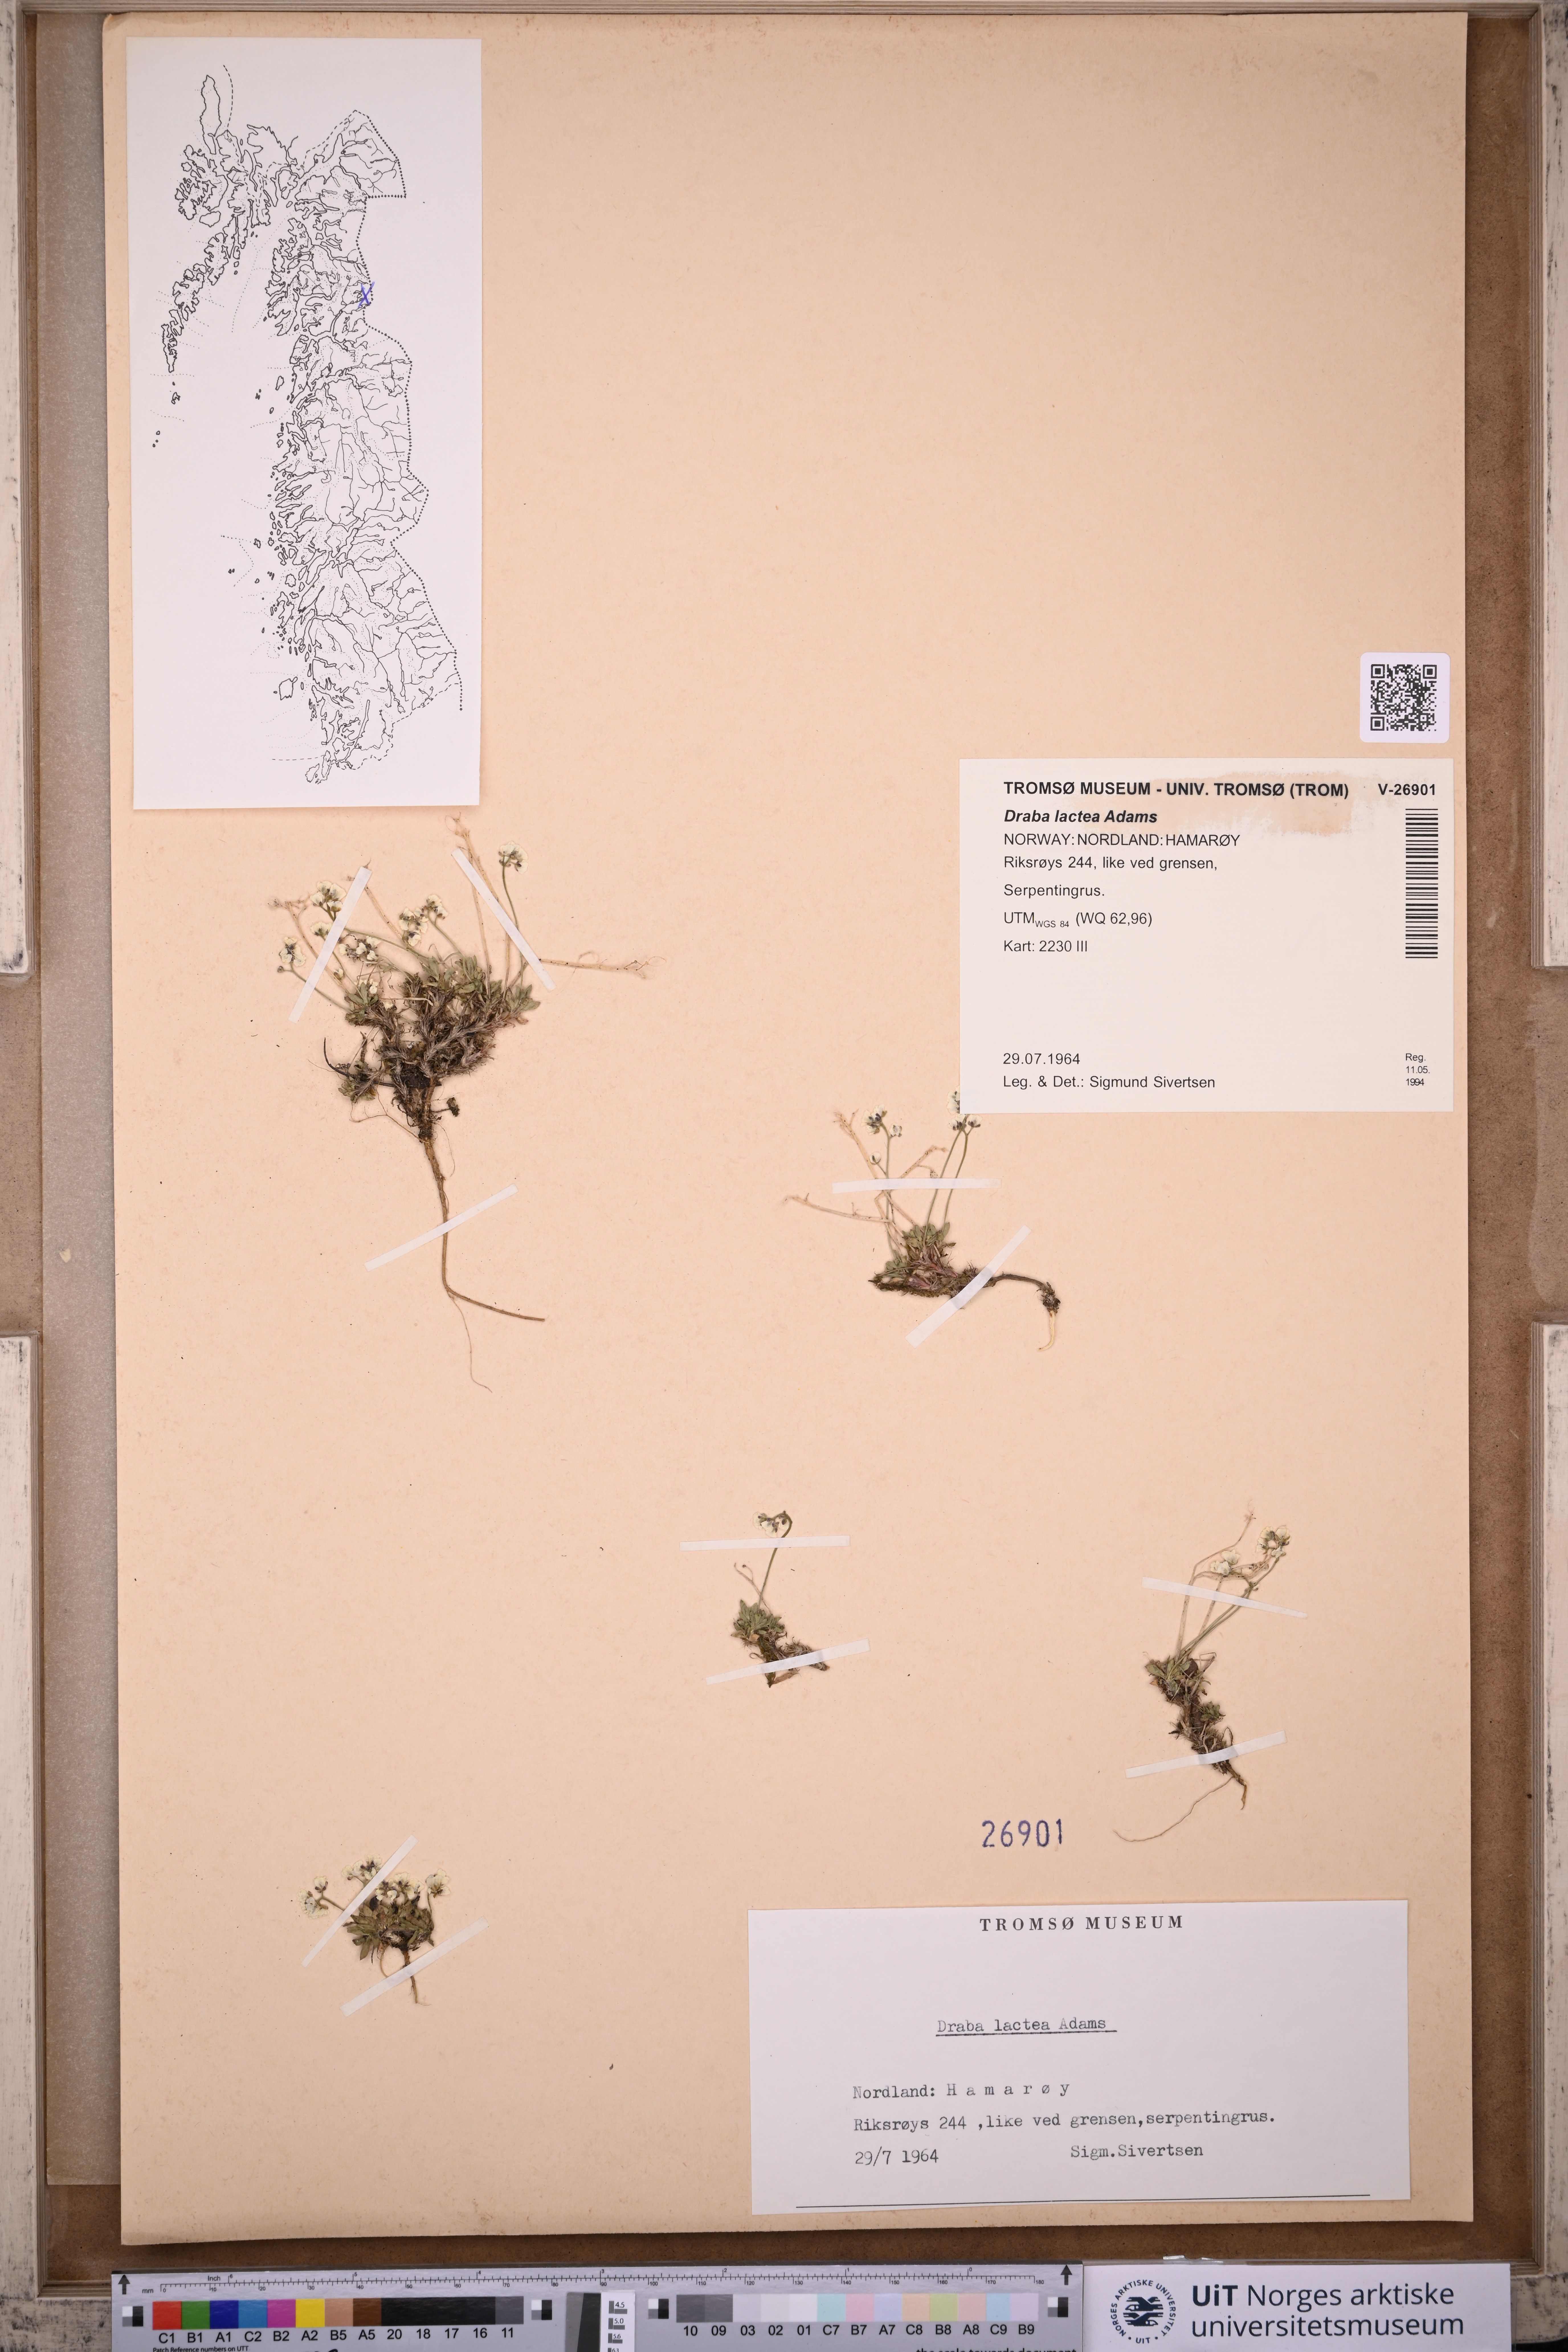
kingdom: Plantae
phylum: Tracheophyta
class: Magnoliopsida
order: Brassicales
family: Brassicaceae
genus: Draba
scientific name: Draba lactea
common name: Milky draba
